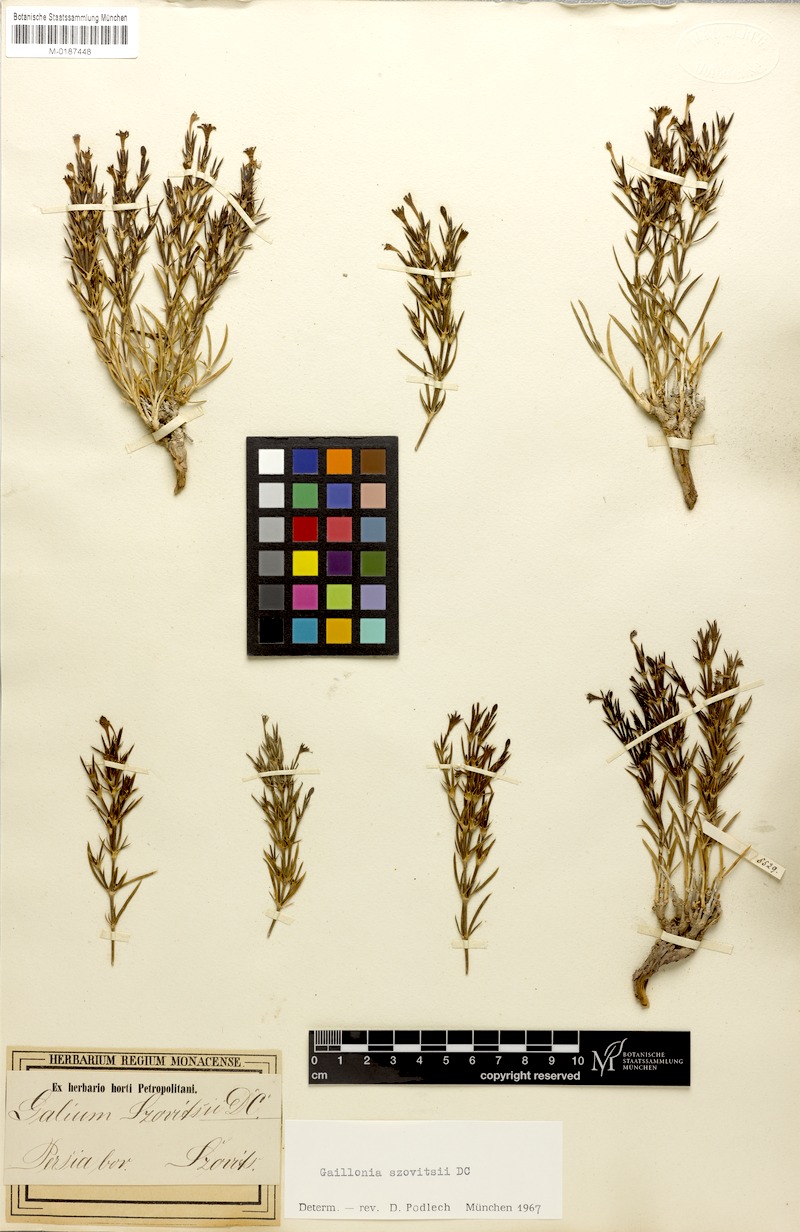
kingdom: Plantae
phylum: Tracheophyta
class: Magnoliopsida
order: Gentianales
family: Rubiaceae
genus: Plocama
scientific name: Plocama szowitzii
